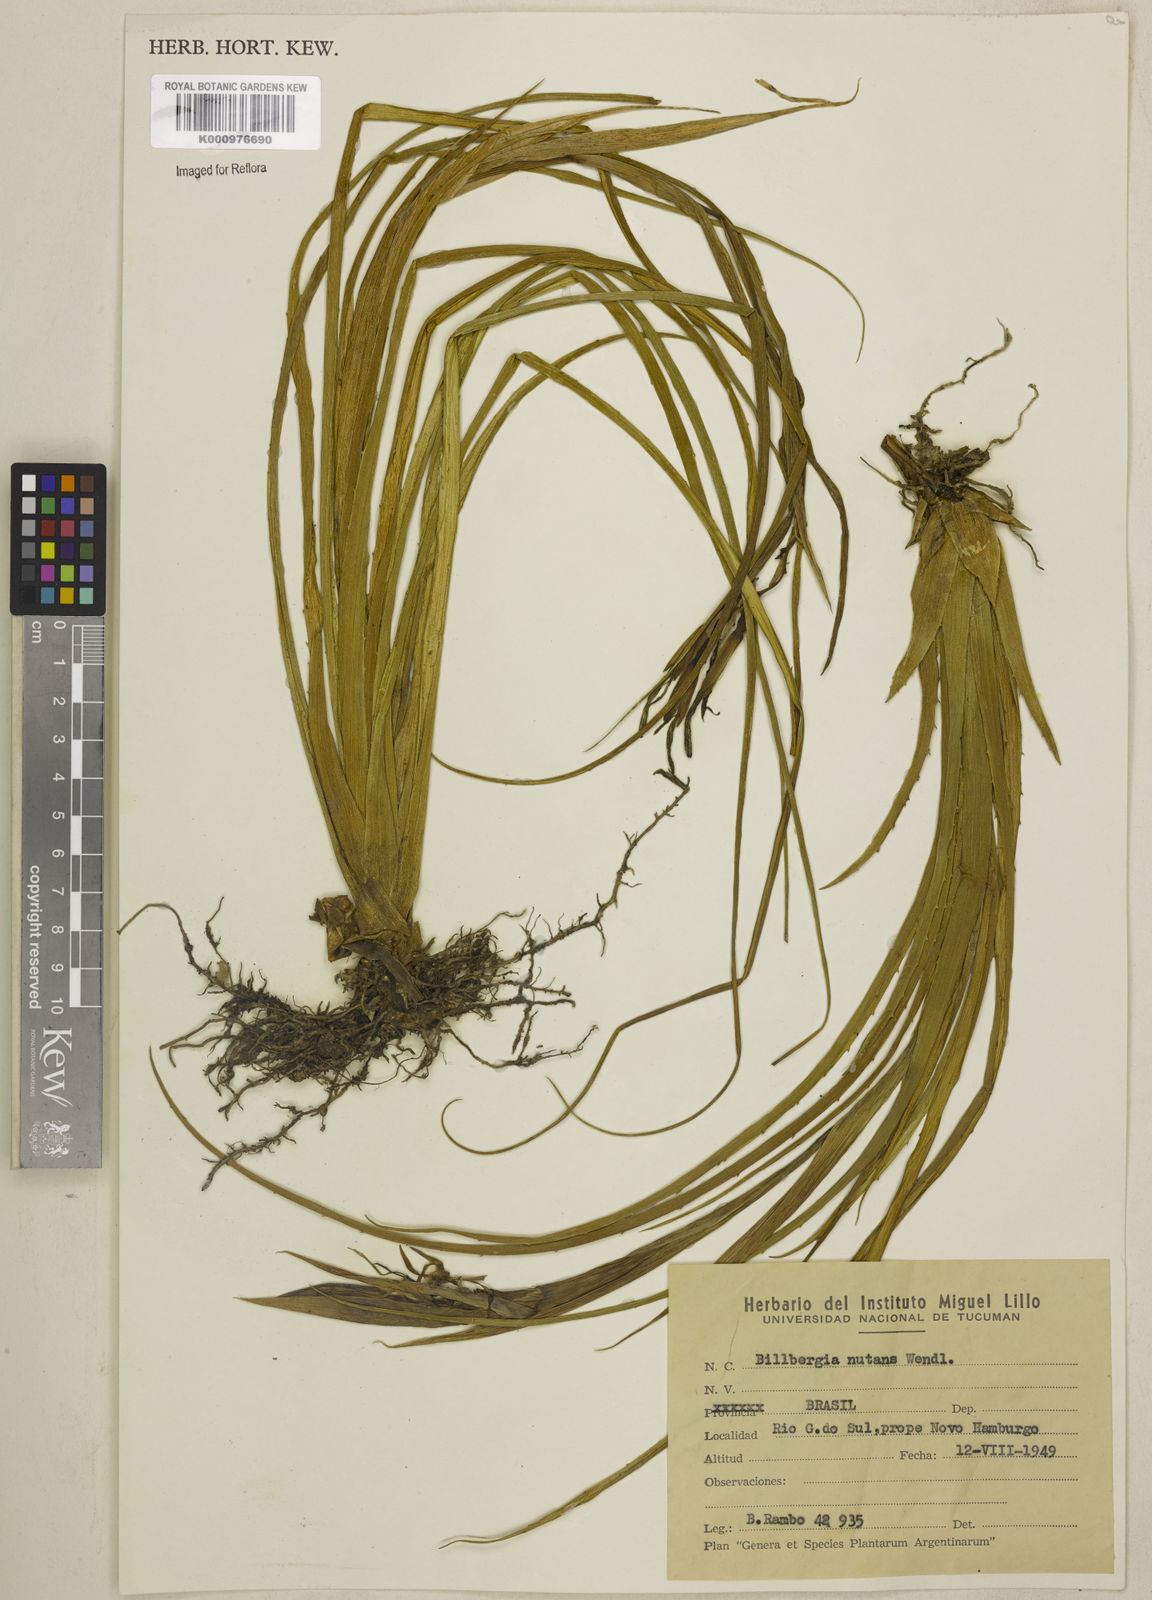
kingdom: Plantae
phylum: Tracheophyta
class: Liliopsida
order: Poales
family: Bromeliaceae
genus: Billbergia
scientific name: Billbergia nutans
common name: Friendship-plant
